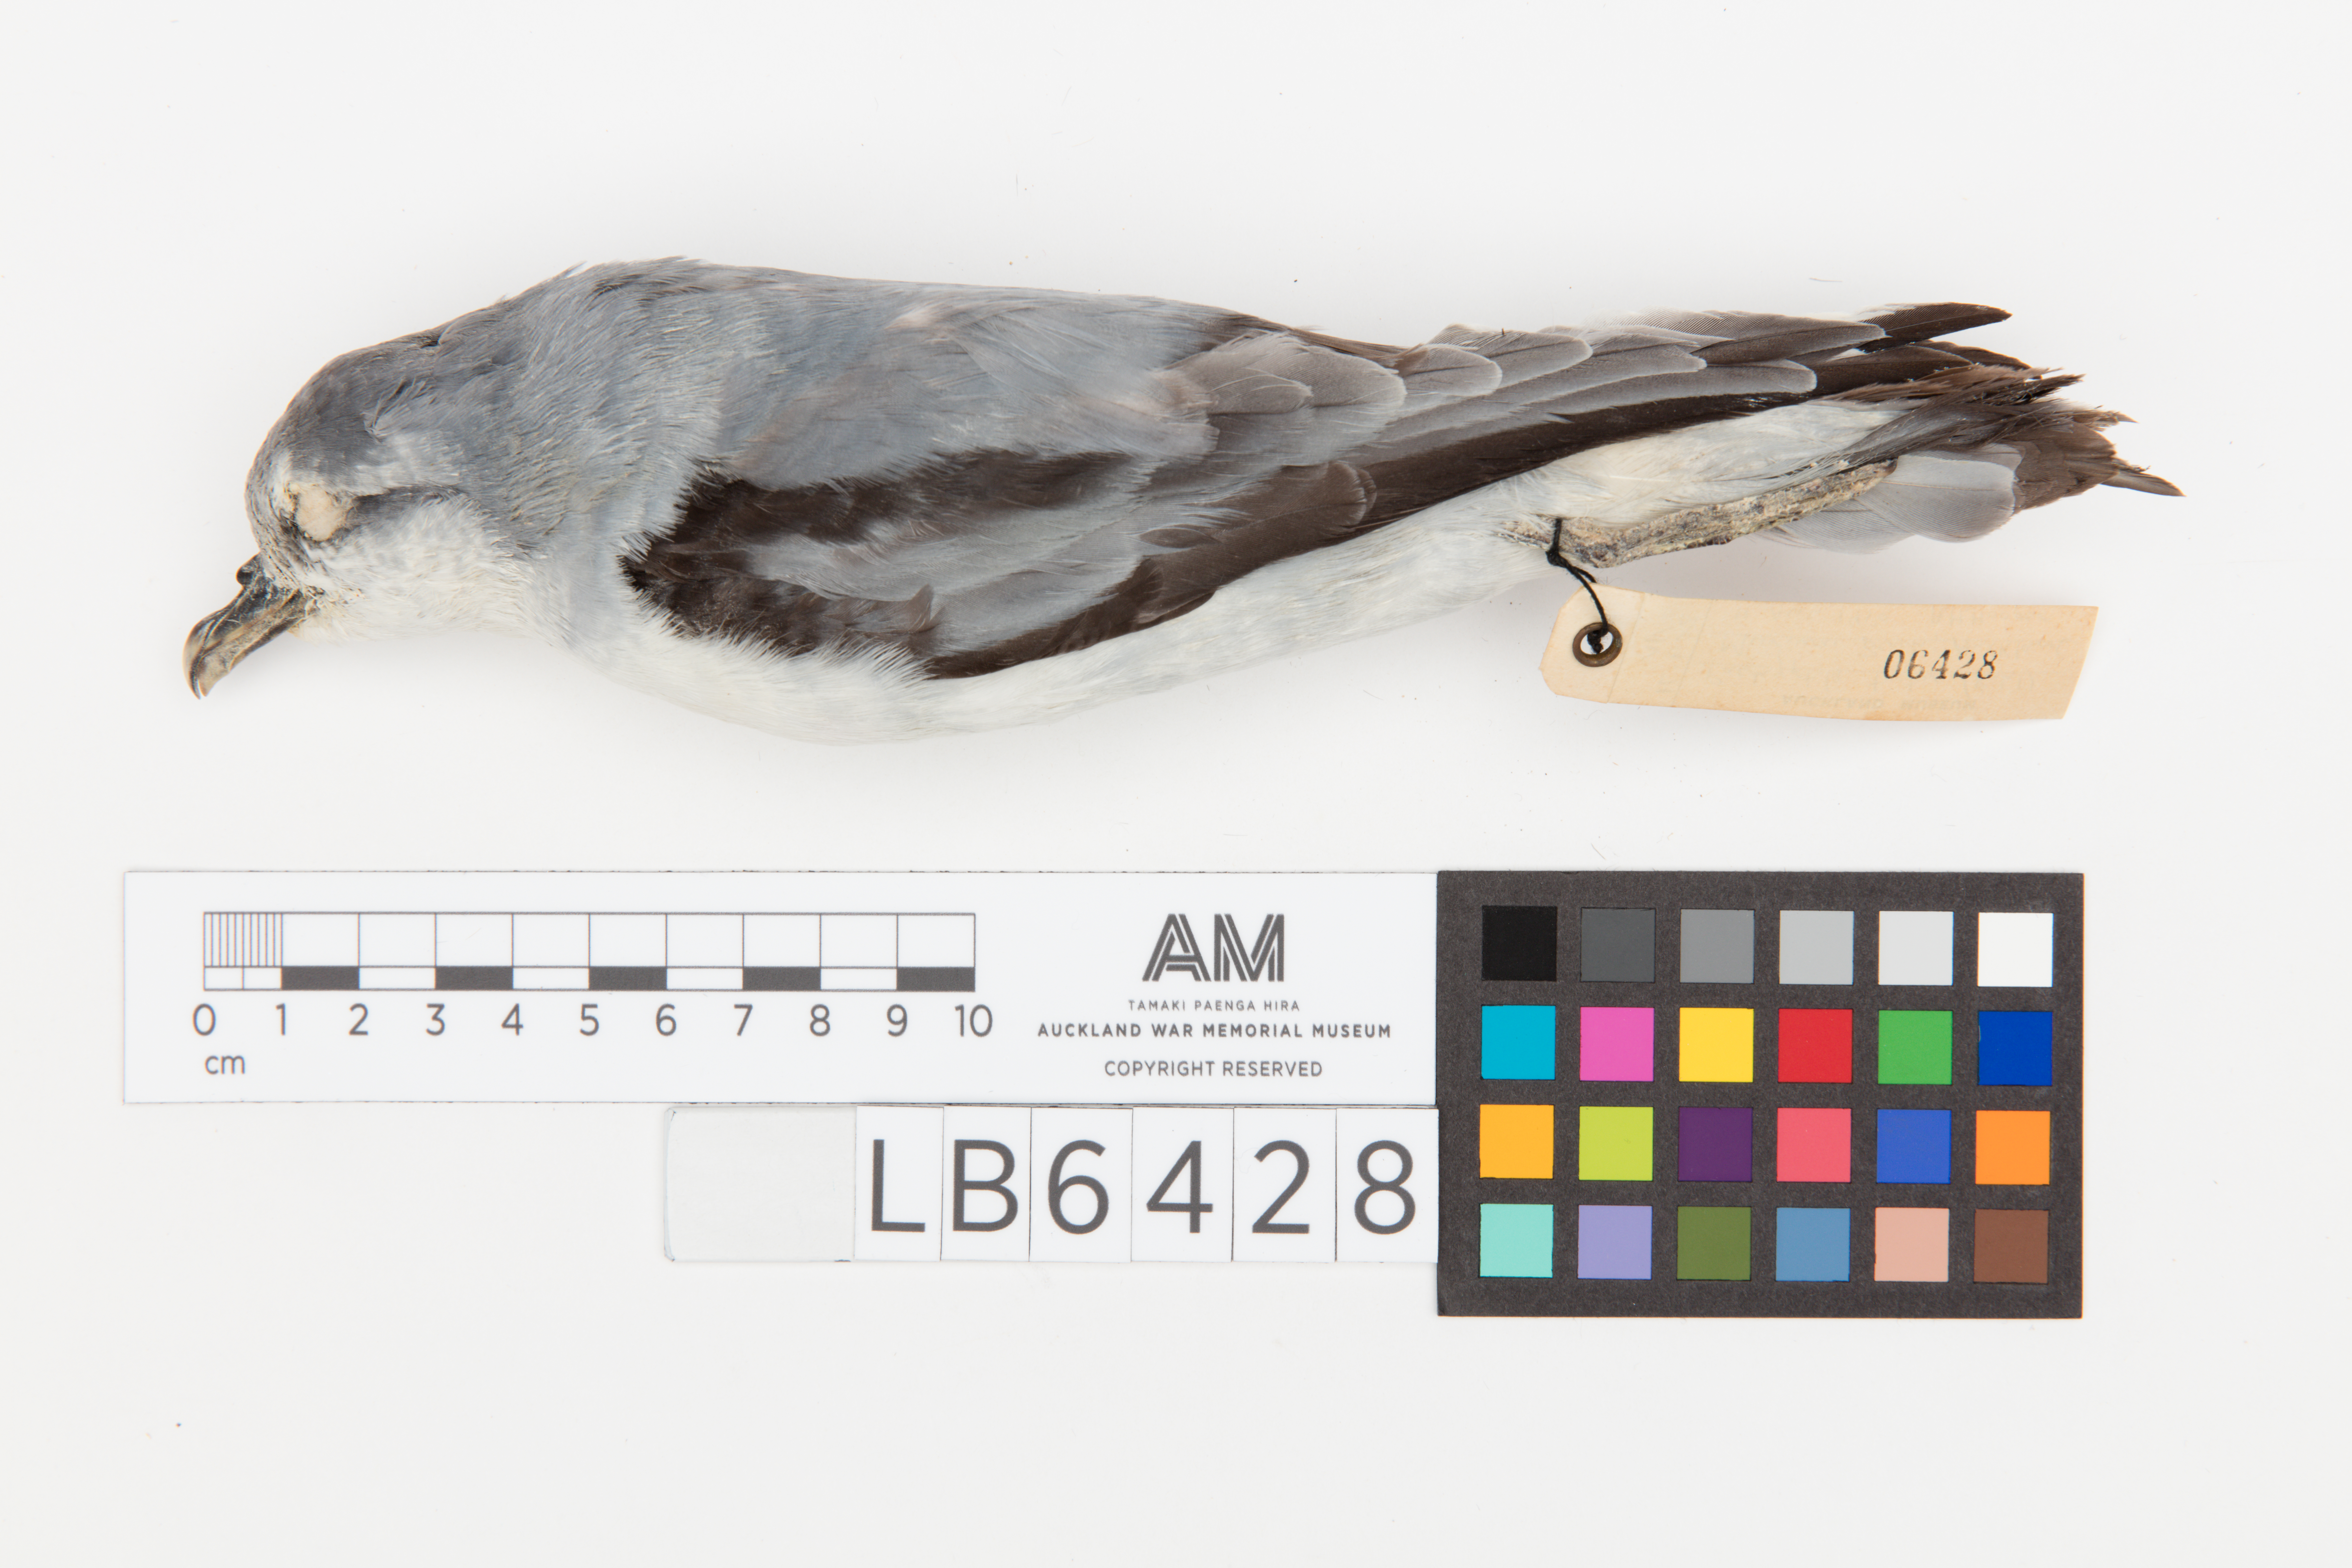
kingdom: Animalia
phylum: Chordata
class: Aves
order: Procellariiformes
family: Procellariidae
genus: Pachyptila
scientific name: Pachyptila turtur
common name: Fairy prion
